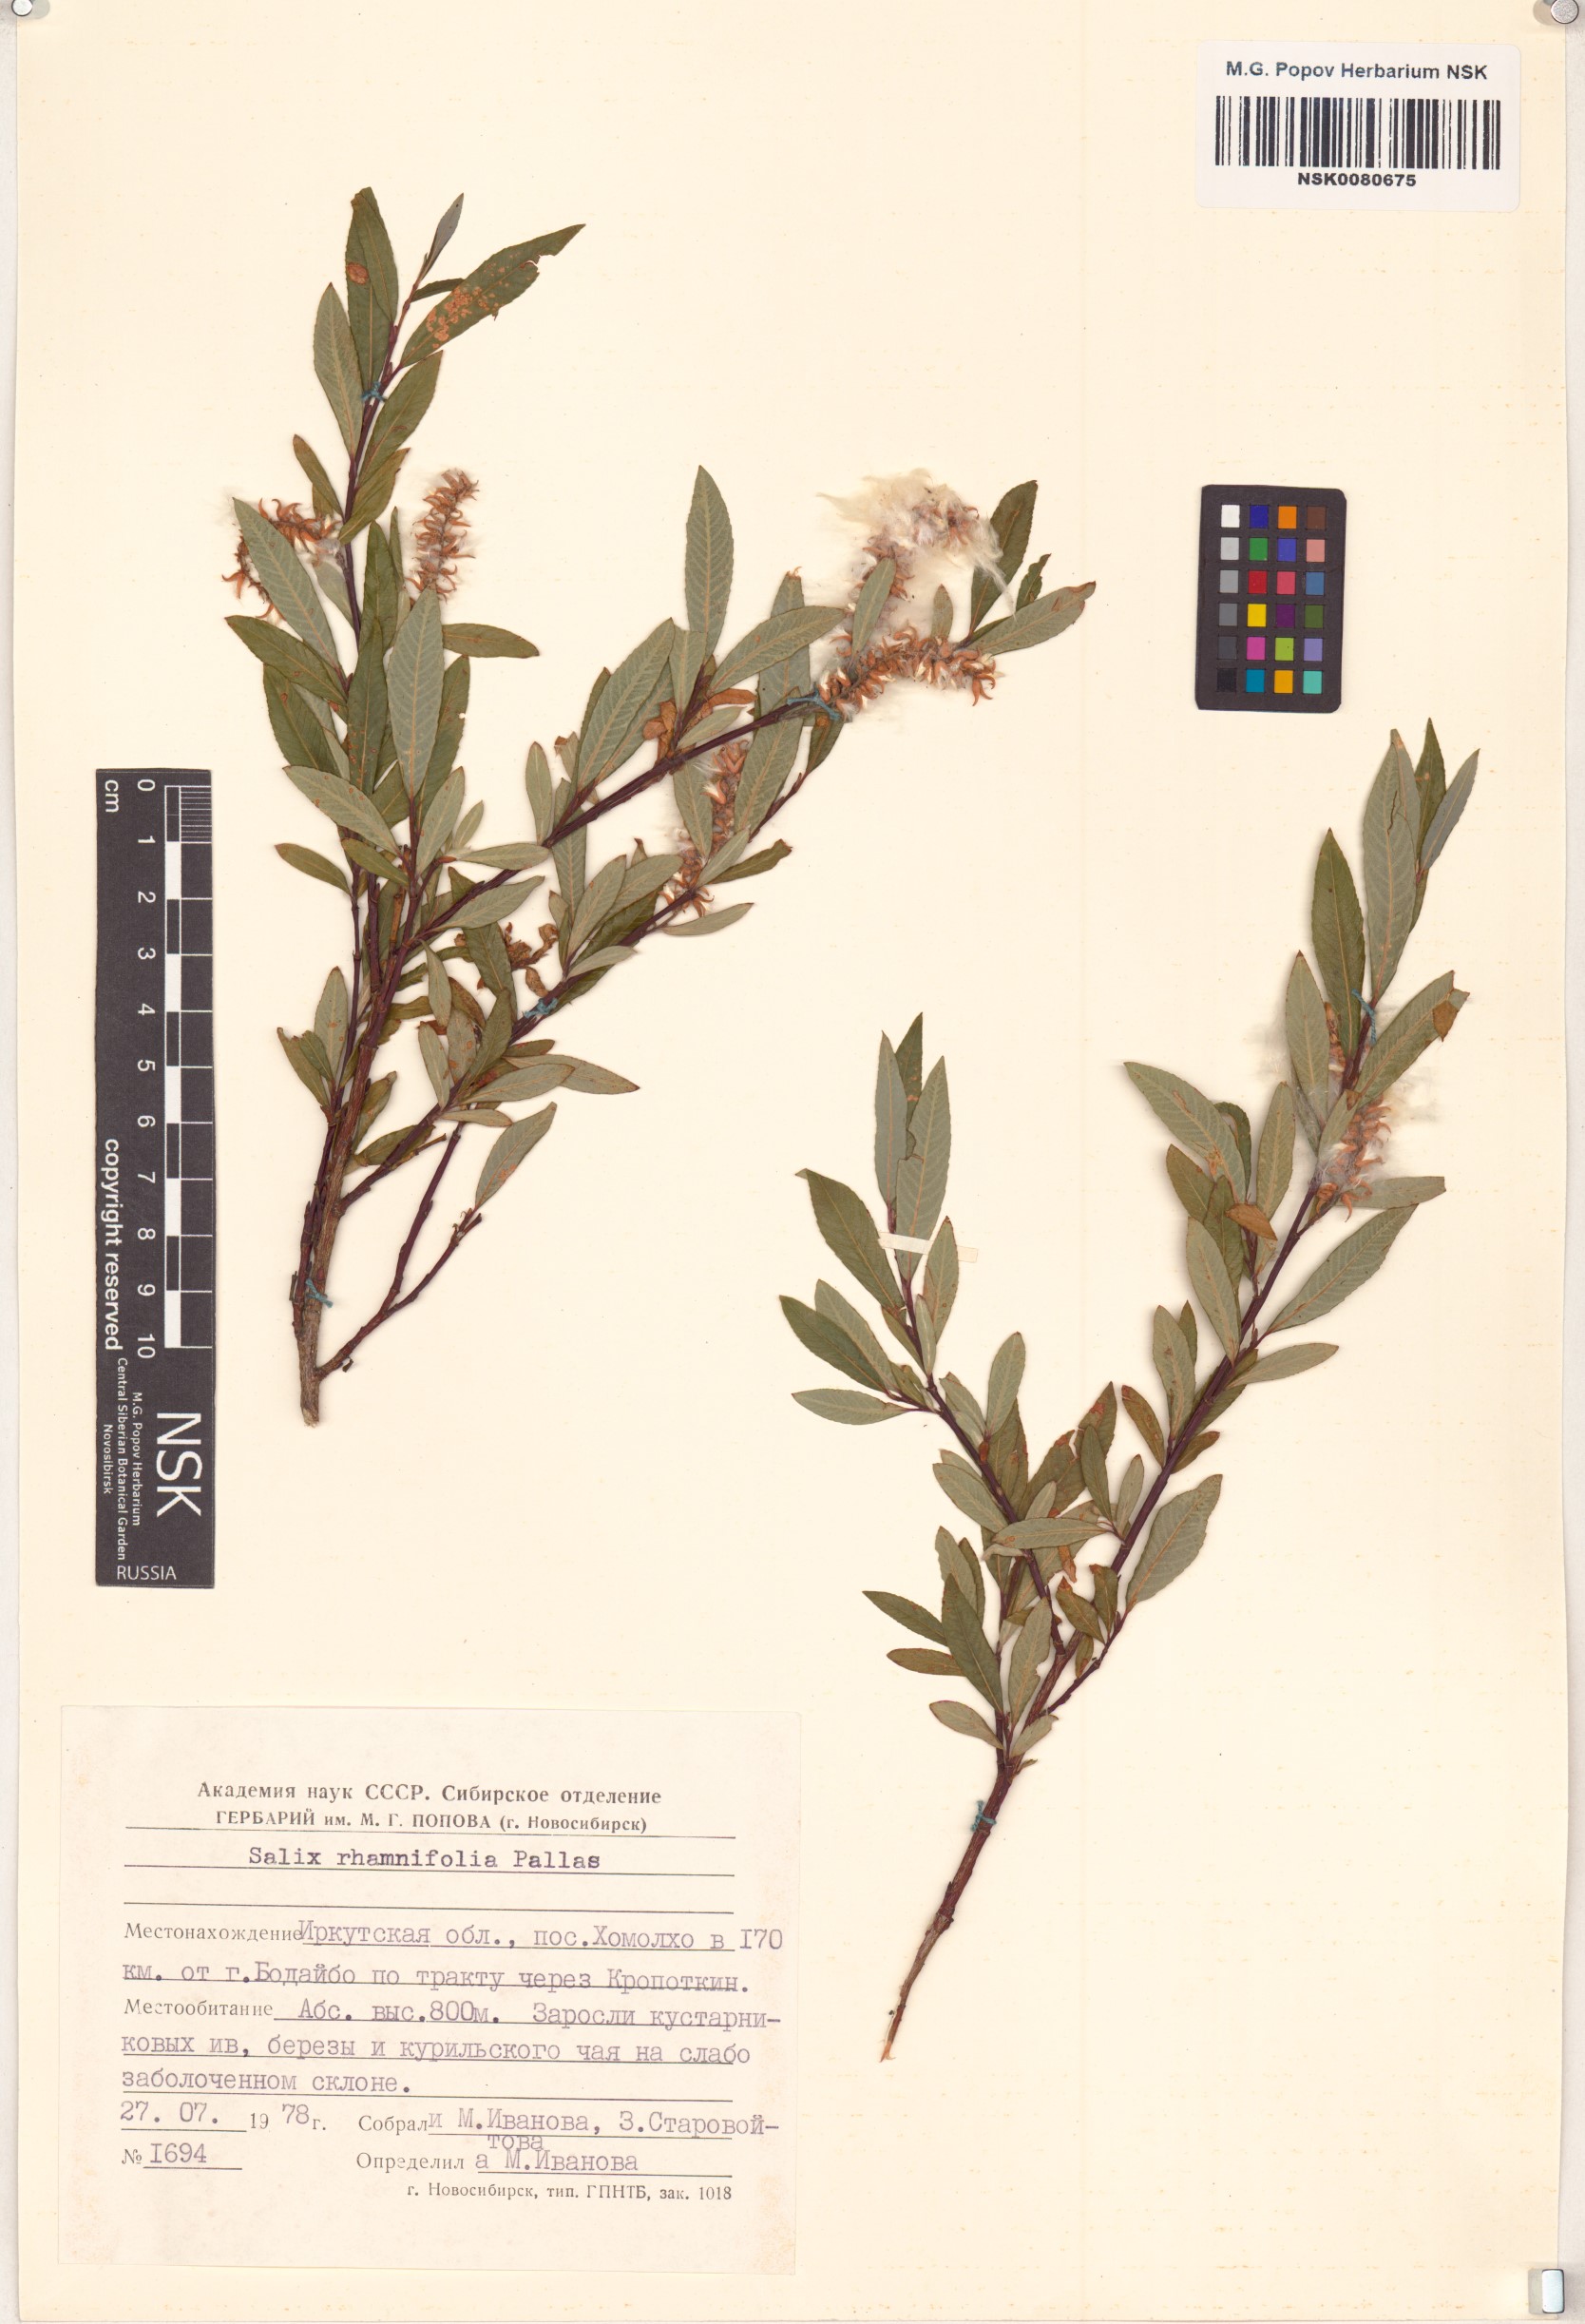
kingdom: Plantae
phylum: Tracheophyta
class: Magnoliopsida
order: Malpighiales
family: Salicaceae
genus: Salix
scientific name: Salix rhamnifolia
